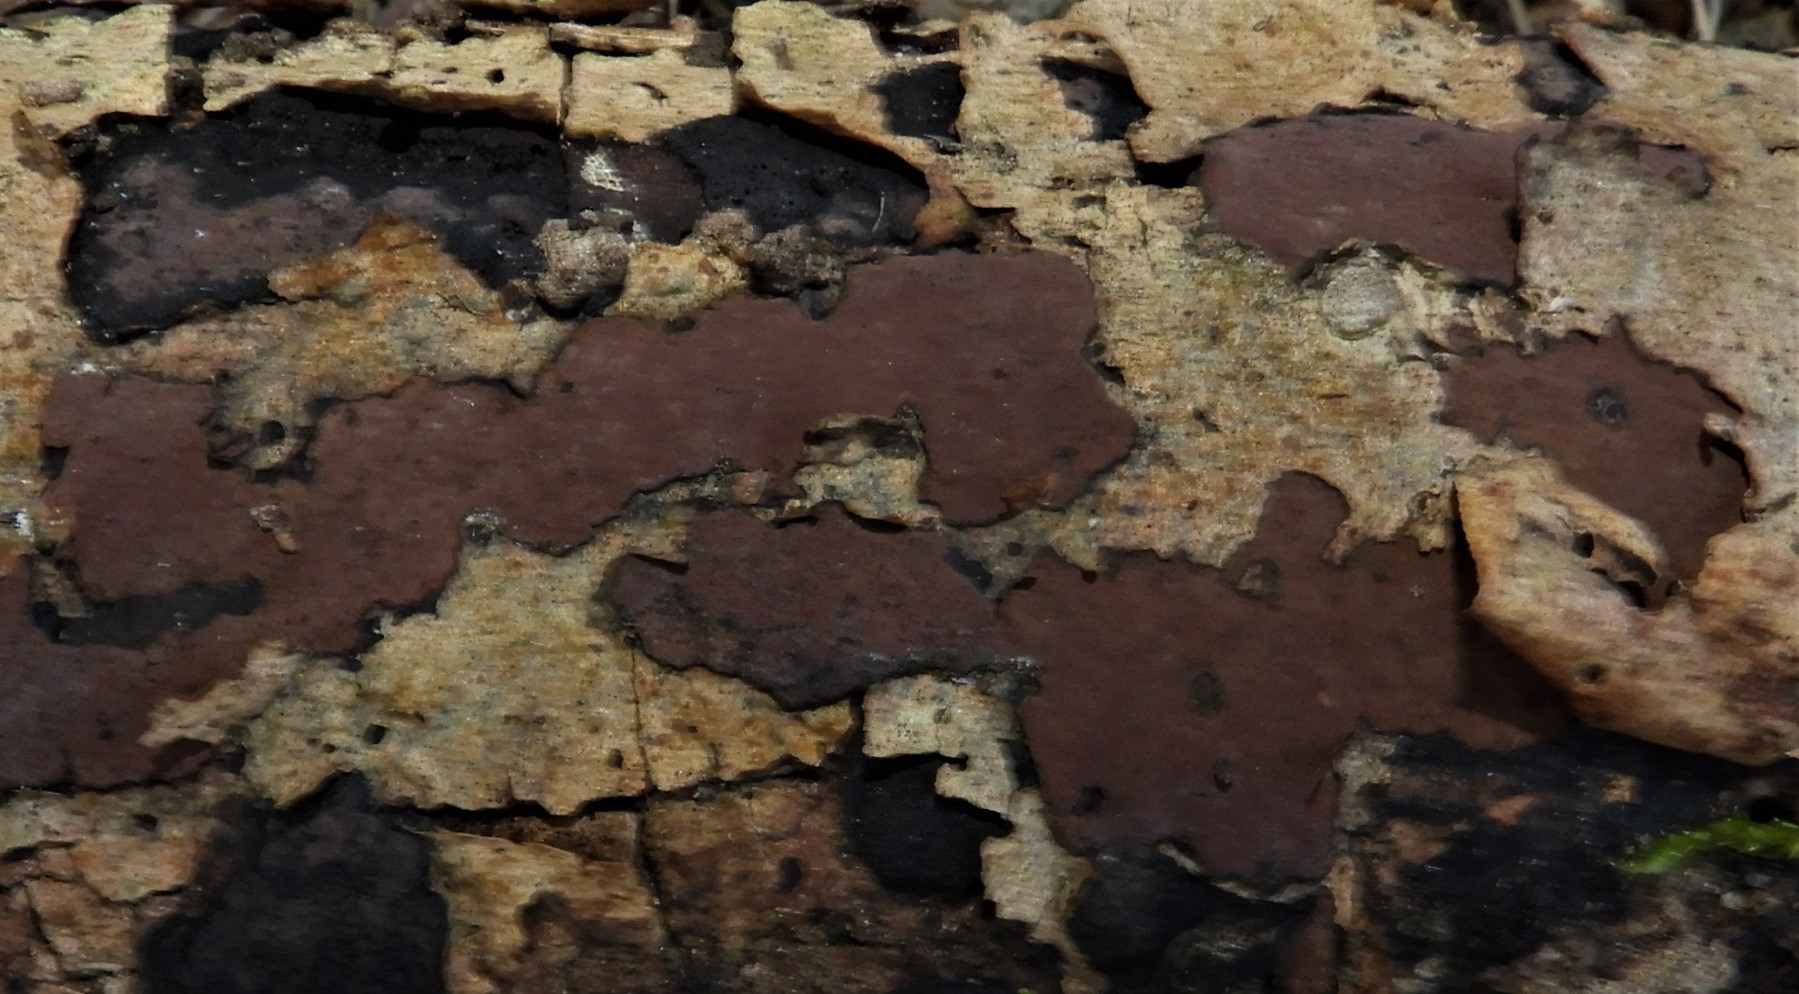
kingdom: Fungi
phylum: Ascomycota
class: Sordariomycetes
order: Xylariales
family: Hypoxylaceae
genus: Hypoxylon
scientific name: Hypoxylon petriniae
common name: nedsænket kulbær
